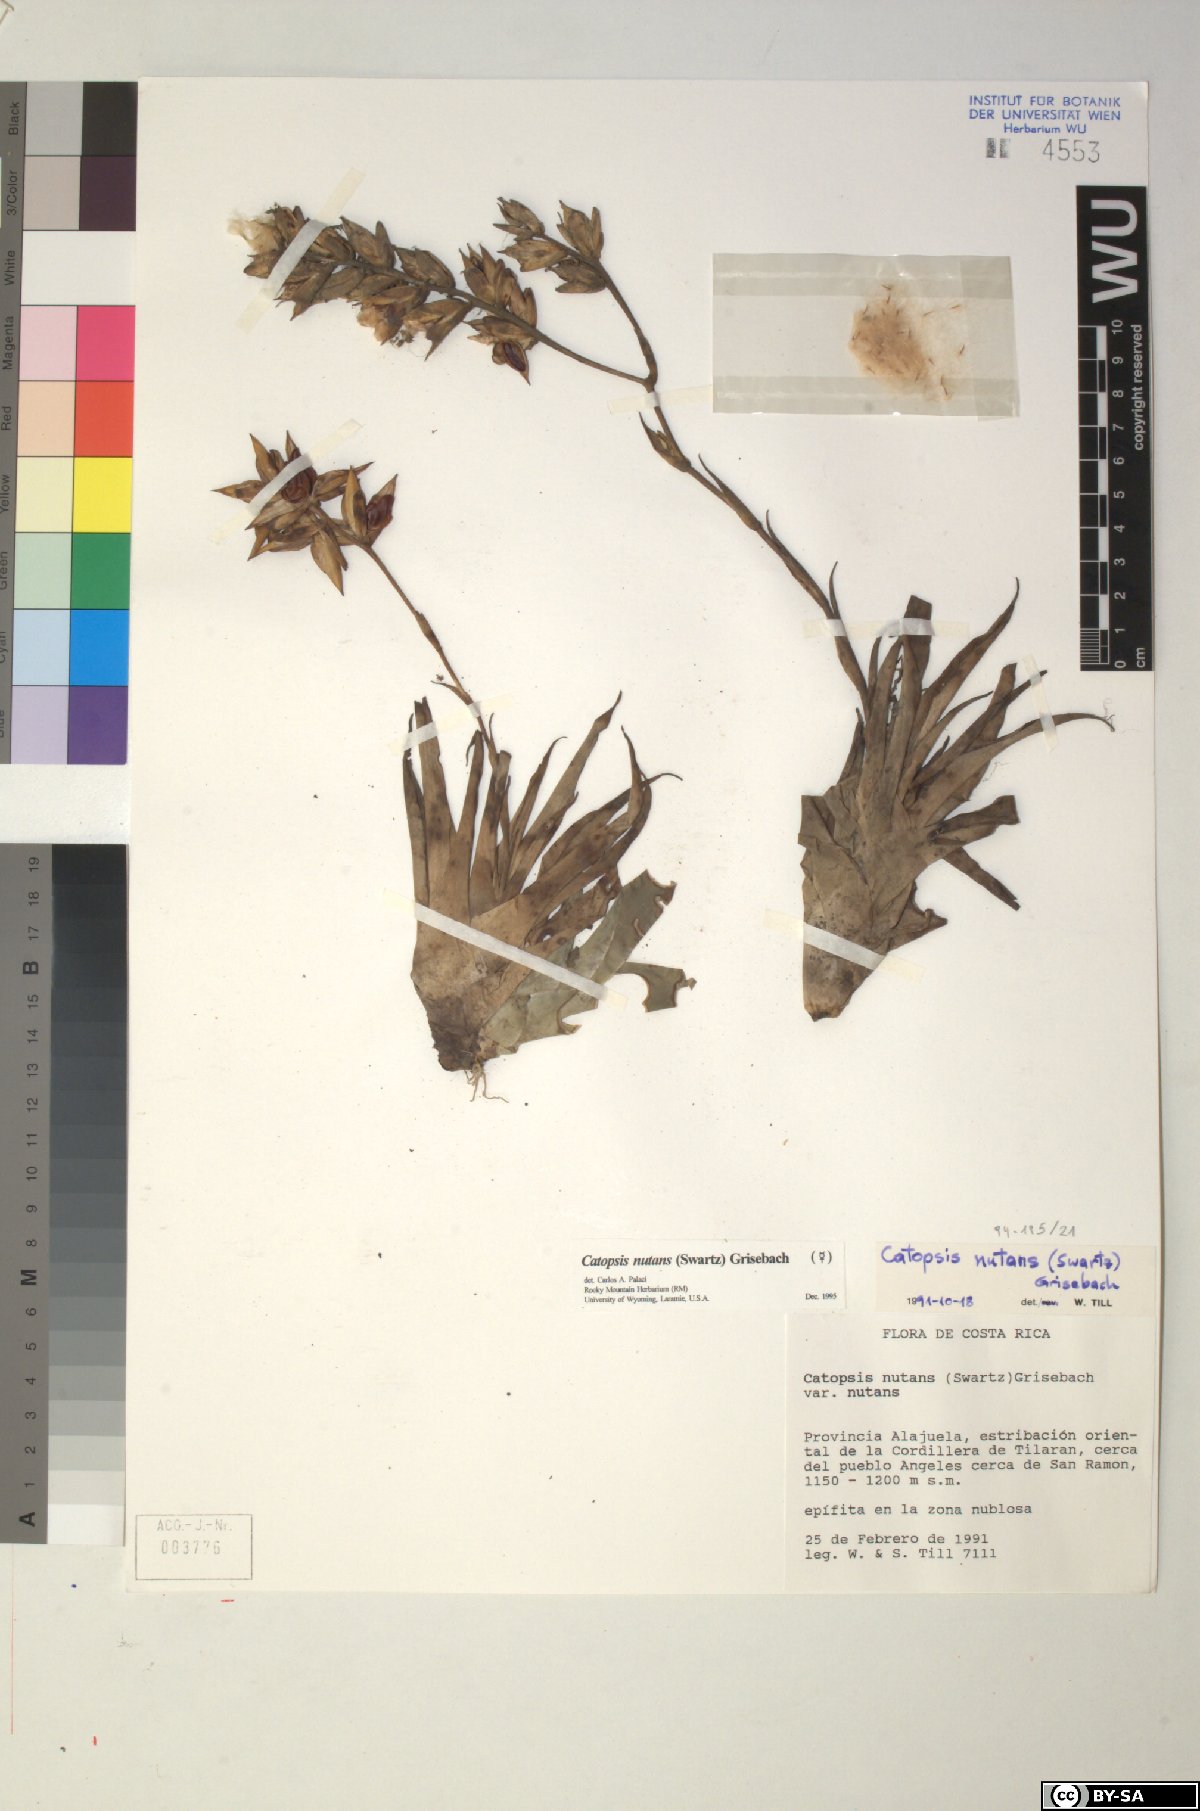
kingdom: Plantae
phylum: Tracheophyta
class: Liliopsida
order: Poales
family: Bromeliaceae
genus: Catopsis
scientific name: Catopsis nutans
